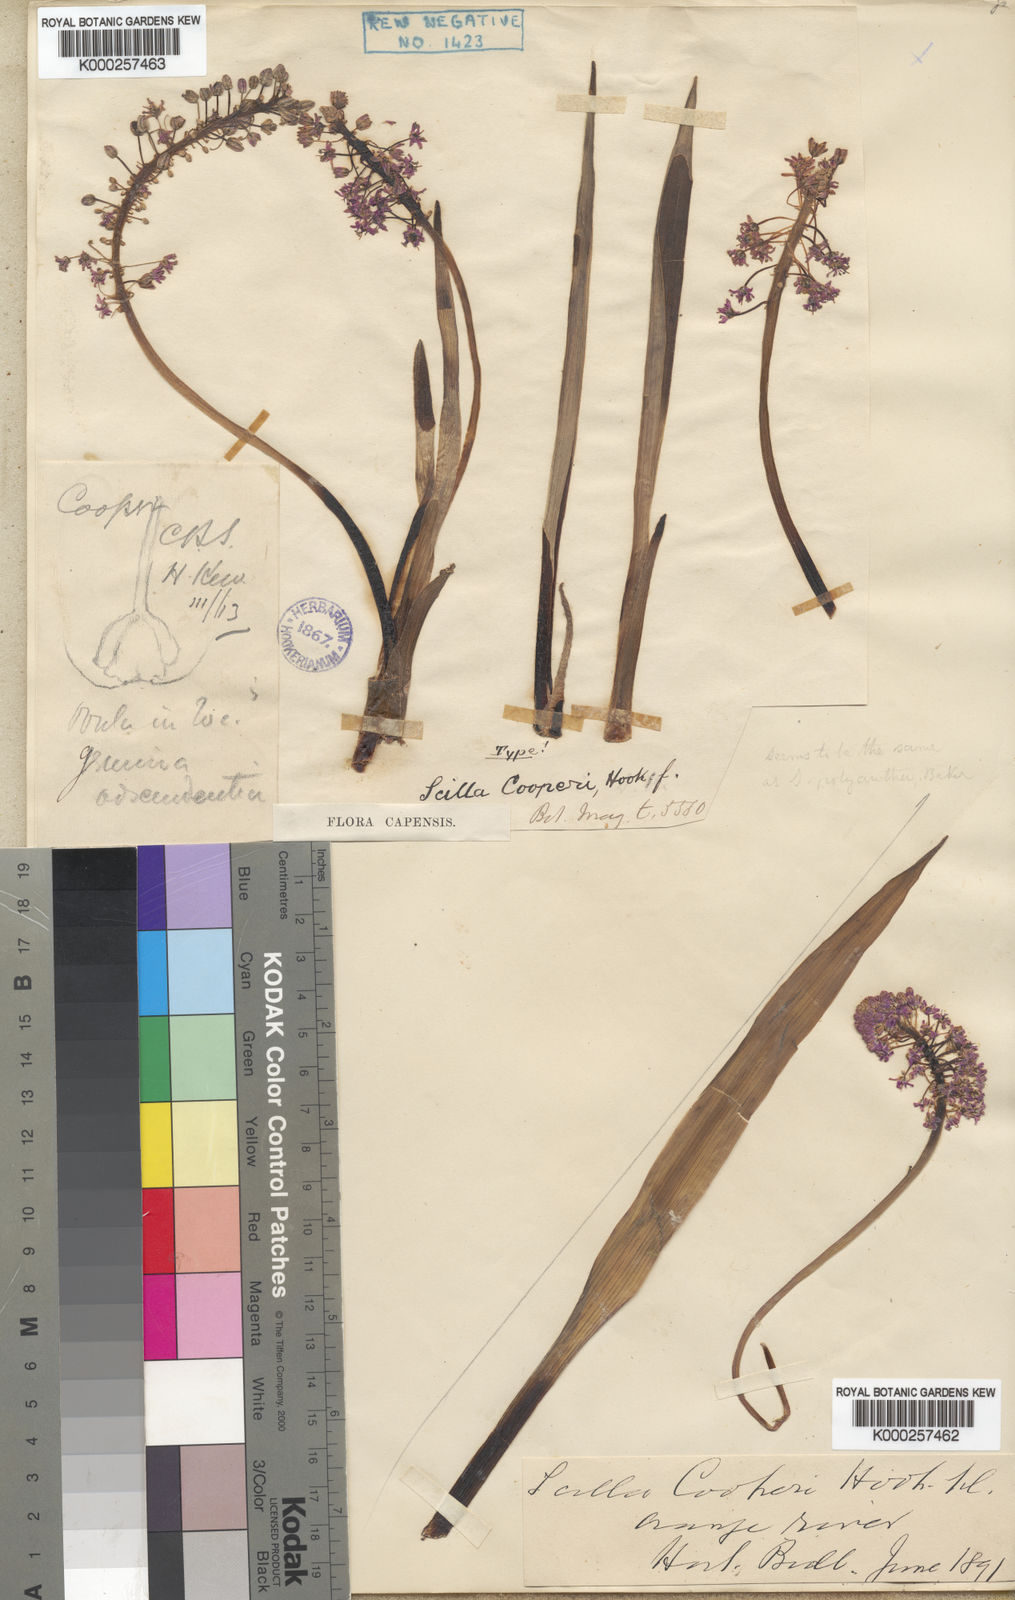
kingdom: Plantae
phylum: Tracheophyta
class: Liliopsida
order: Asparagales
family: Asparagaceae
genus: Ledebouria
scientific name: Ledebouria cooperi
